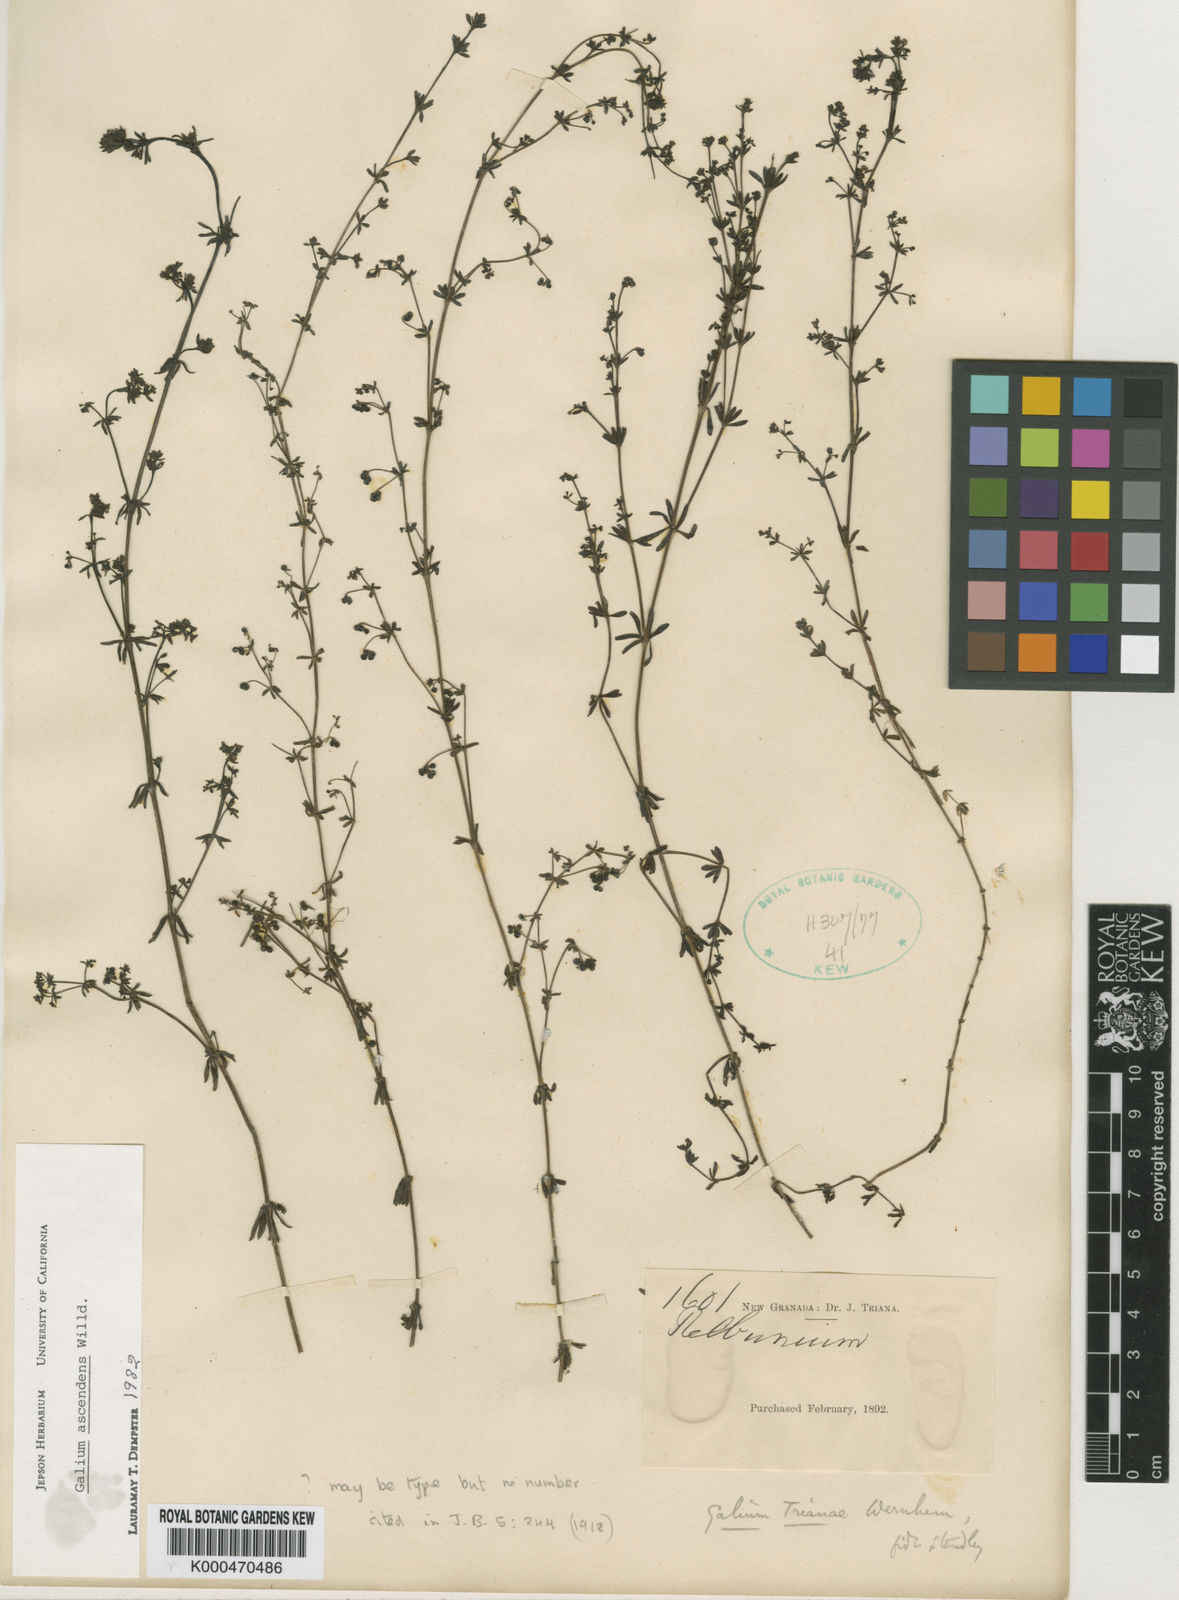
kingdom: Plantae
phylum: Tracheophyta
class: Magnoliopsida
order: Gentianales
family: Rubiaceae
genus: Galium
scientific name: Galium ascendens
